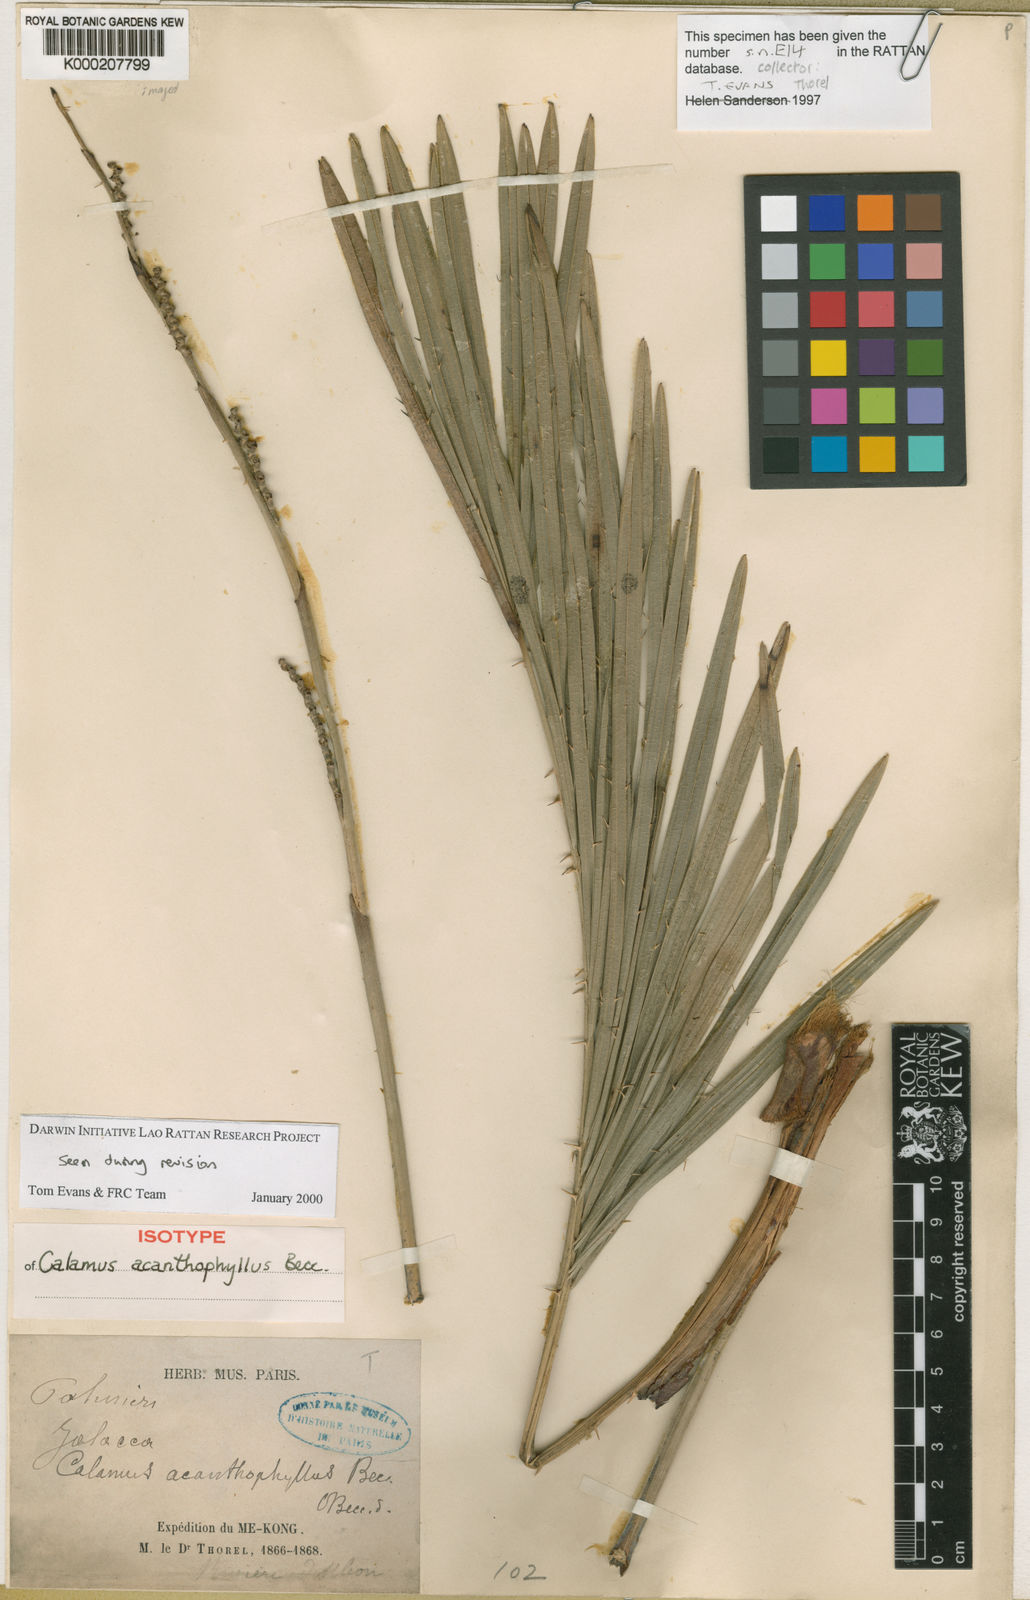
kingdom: Plantae
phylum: Tracheophyta
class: Liliopsida
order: Arecales
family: Arecaceae
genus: Calamus
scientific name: Calamus acanthophyllus
